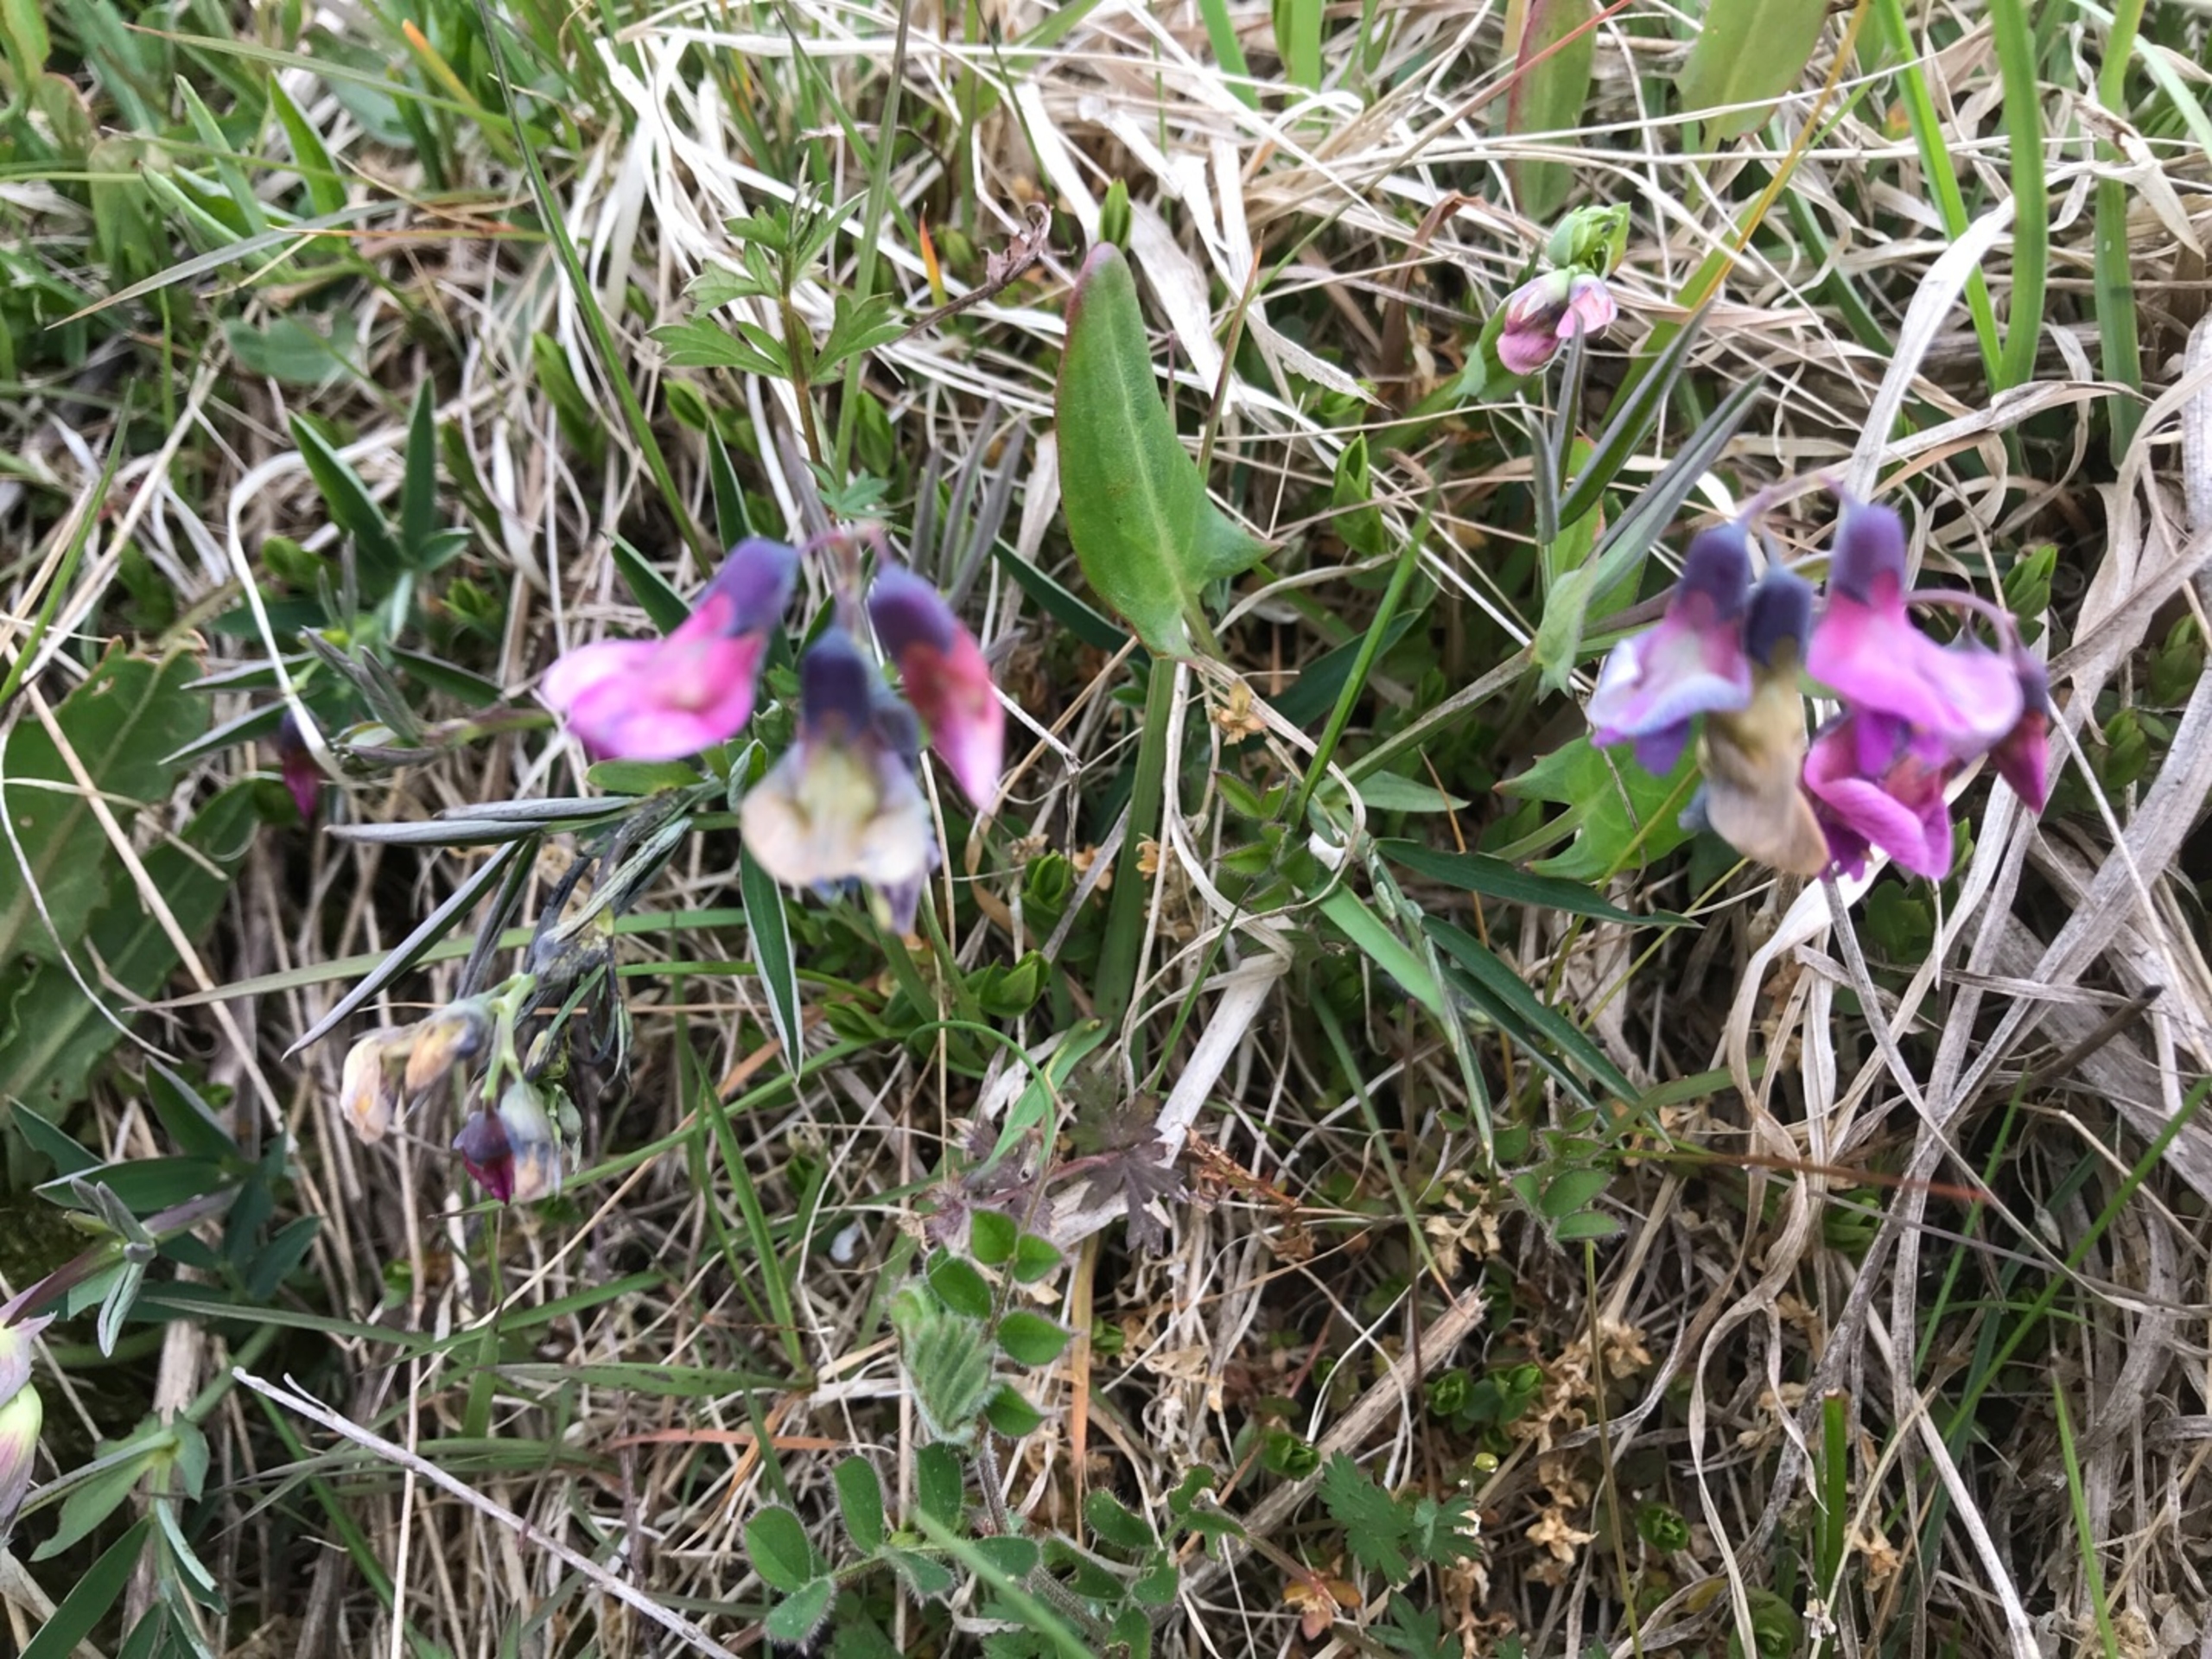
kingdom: Plantae
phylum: Tracheophyta
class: Magnoliopsida
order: Fabales
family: Fabaceae
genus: Lathyrus
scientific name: Lathyrus linifolius
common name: Krat-fladbælg
